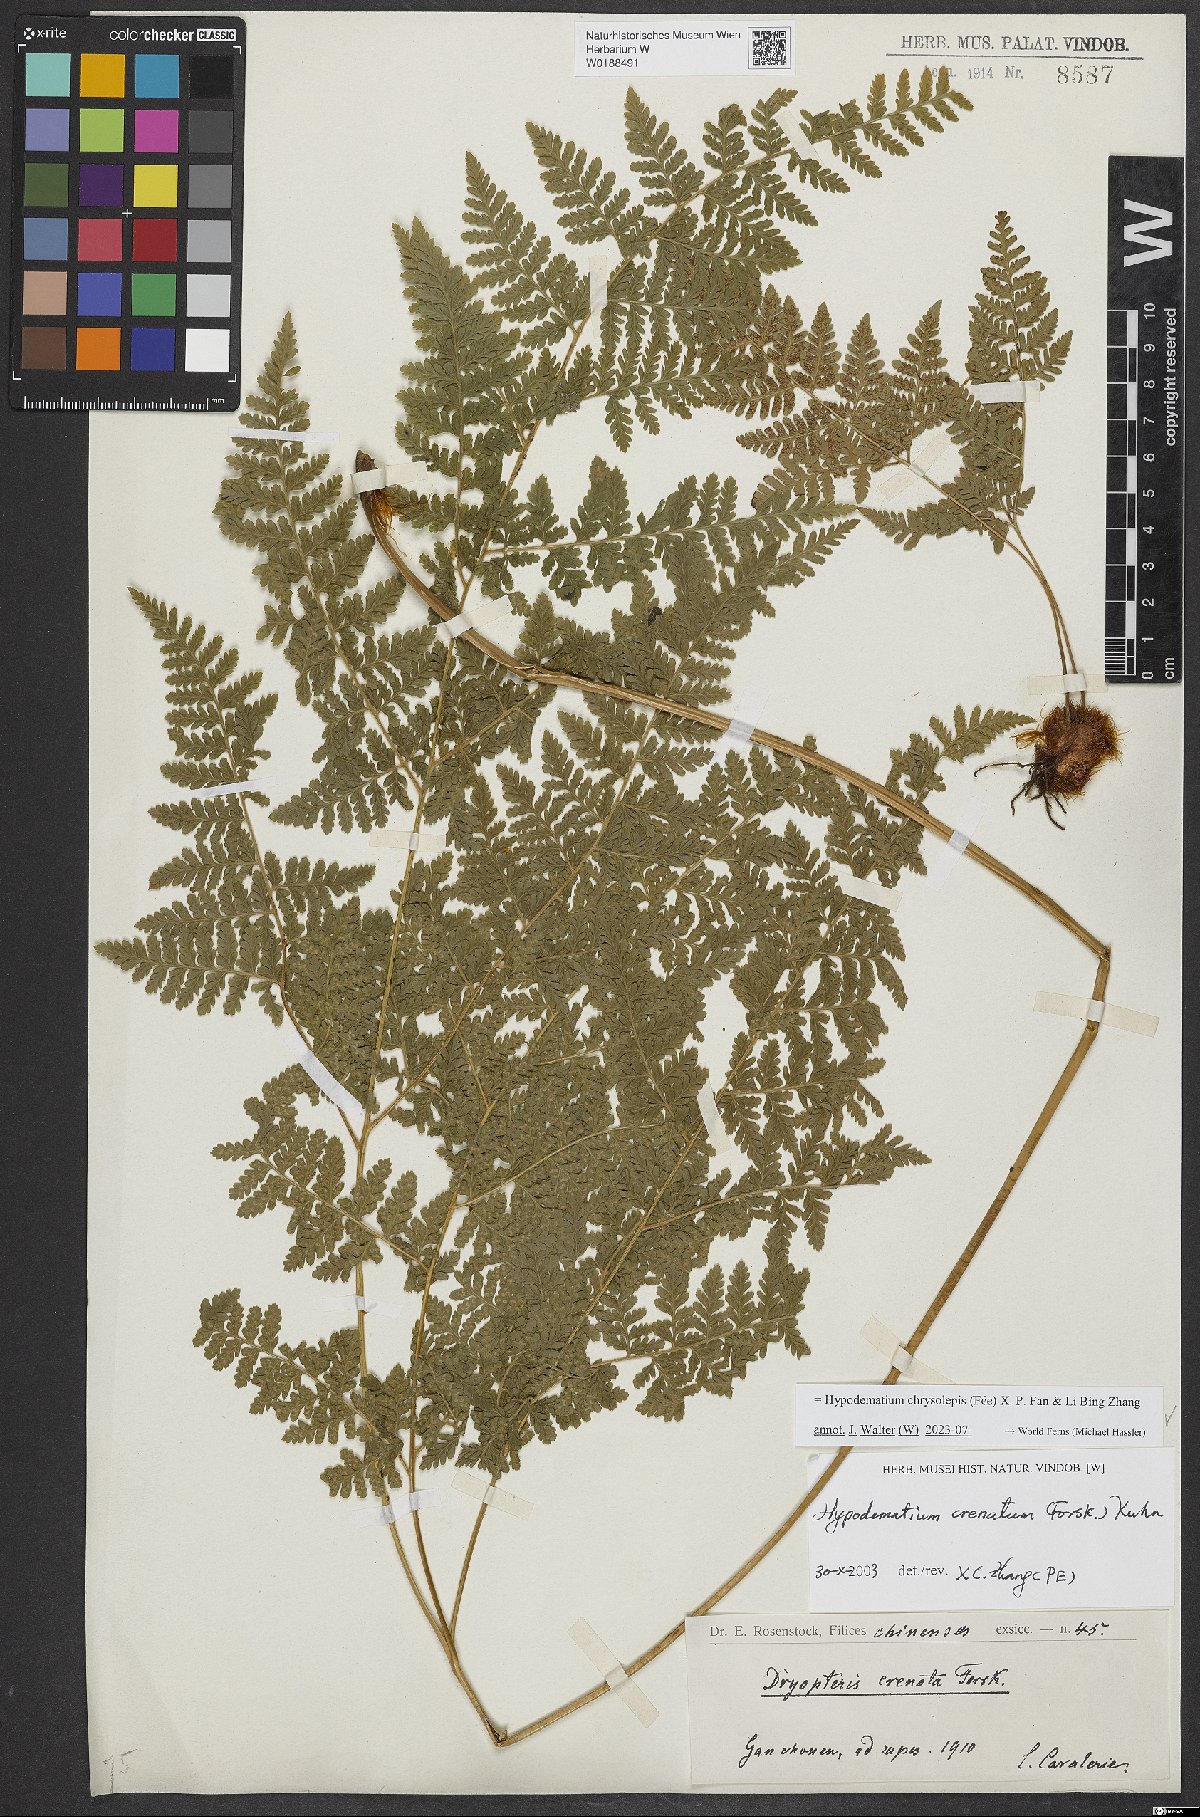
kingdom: Plantae
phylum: Tracheophyta
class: Polypodiopsida
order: Polypodiales
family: Hypodematiaceae
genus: Hypodematium
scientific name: Hypodematium chrysolepis
